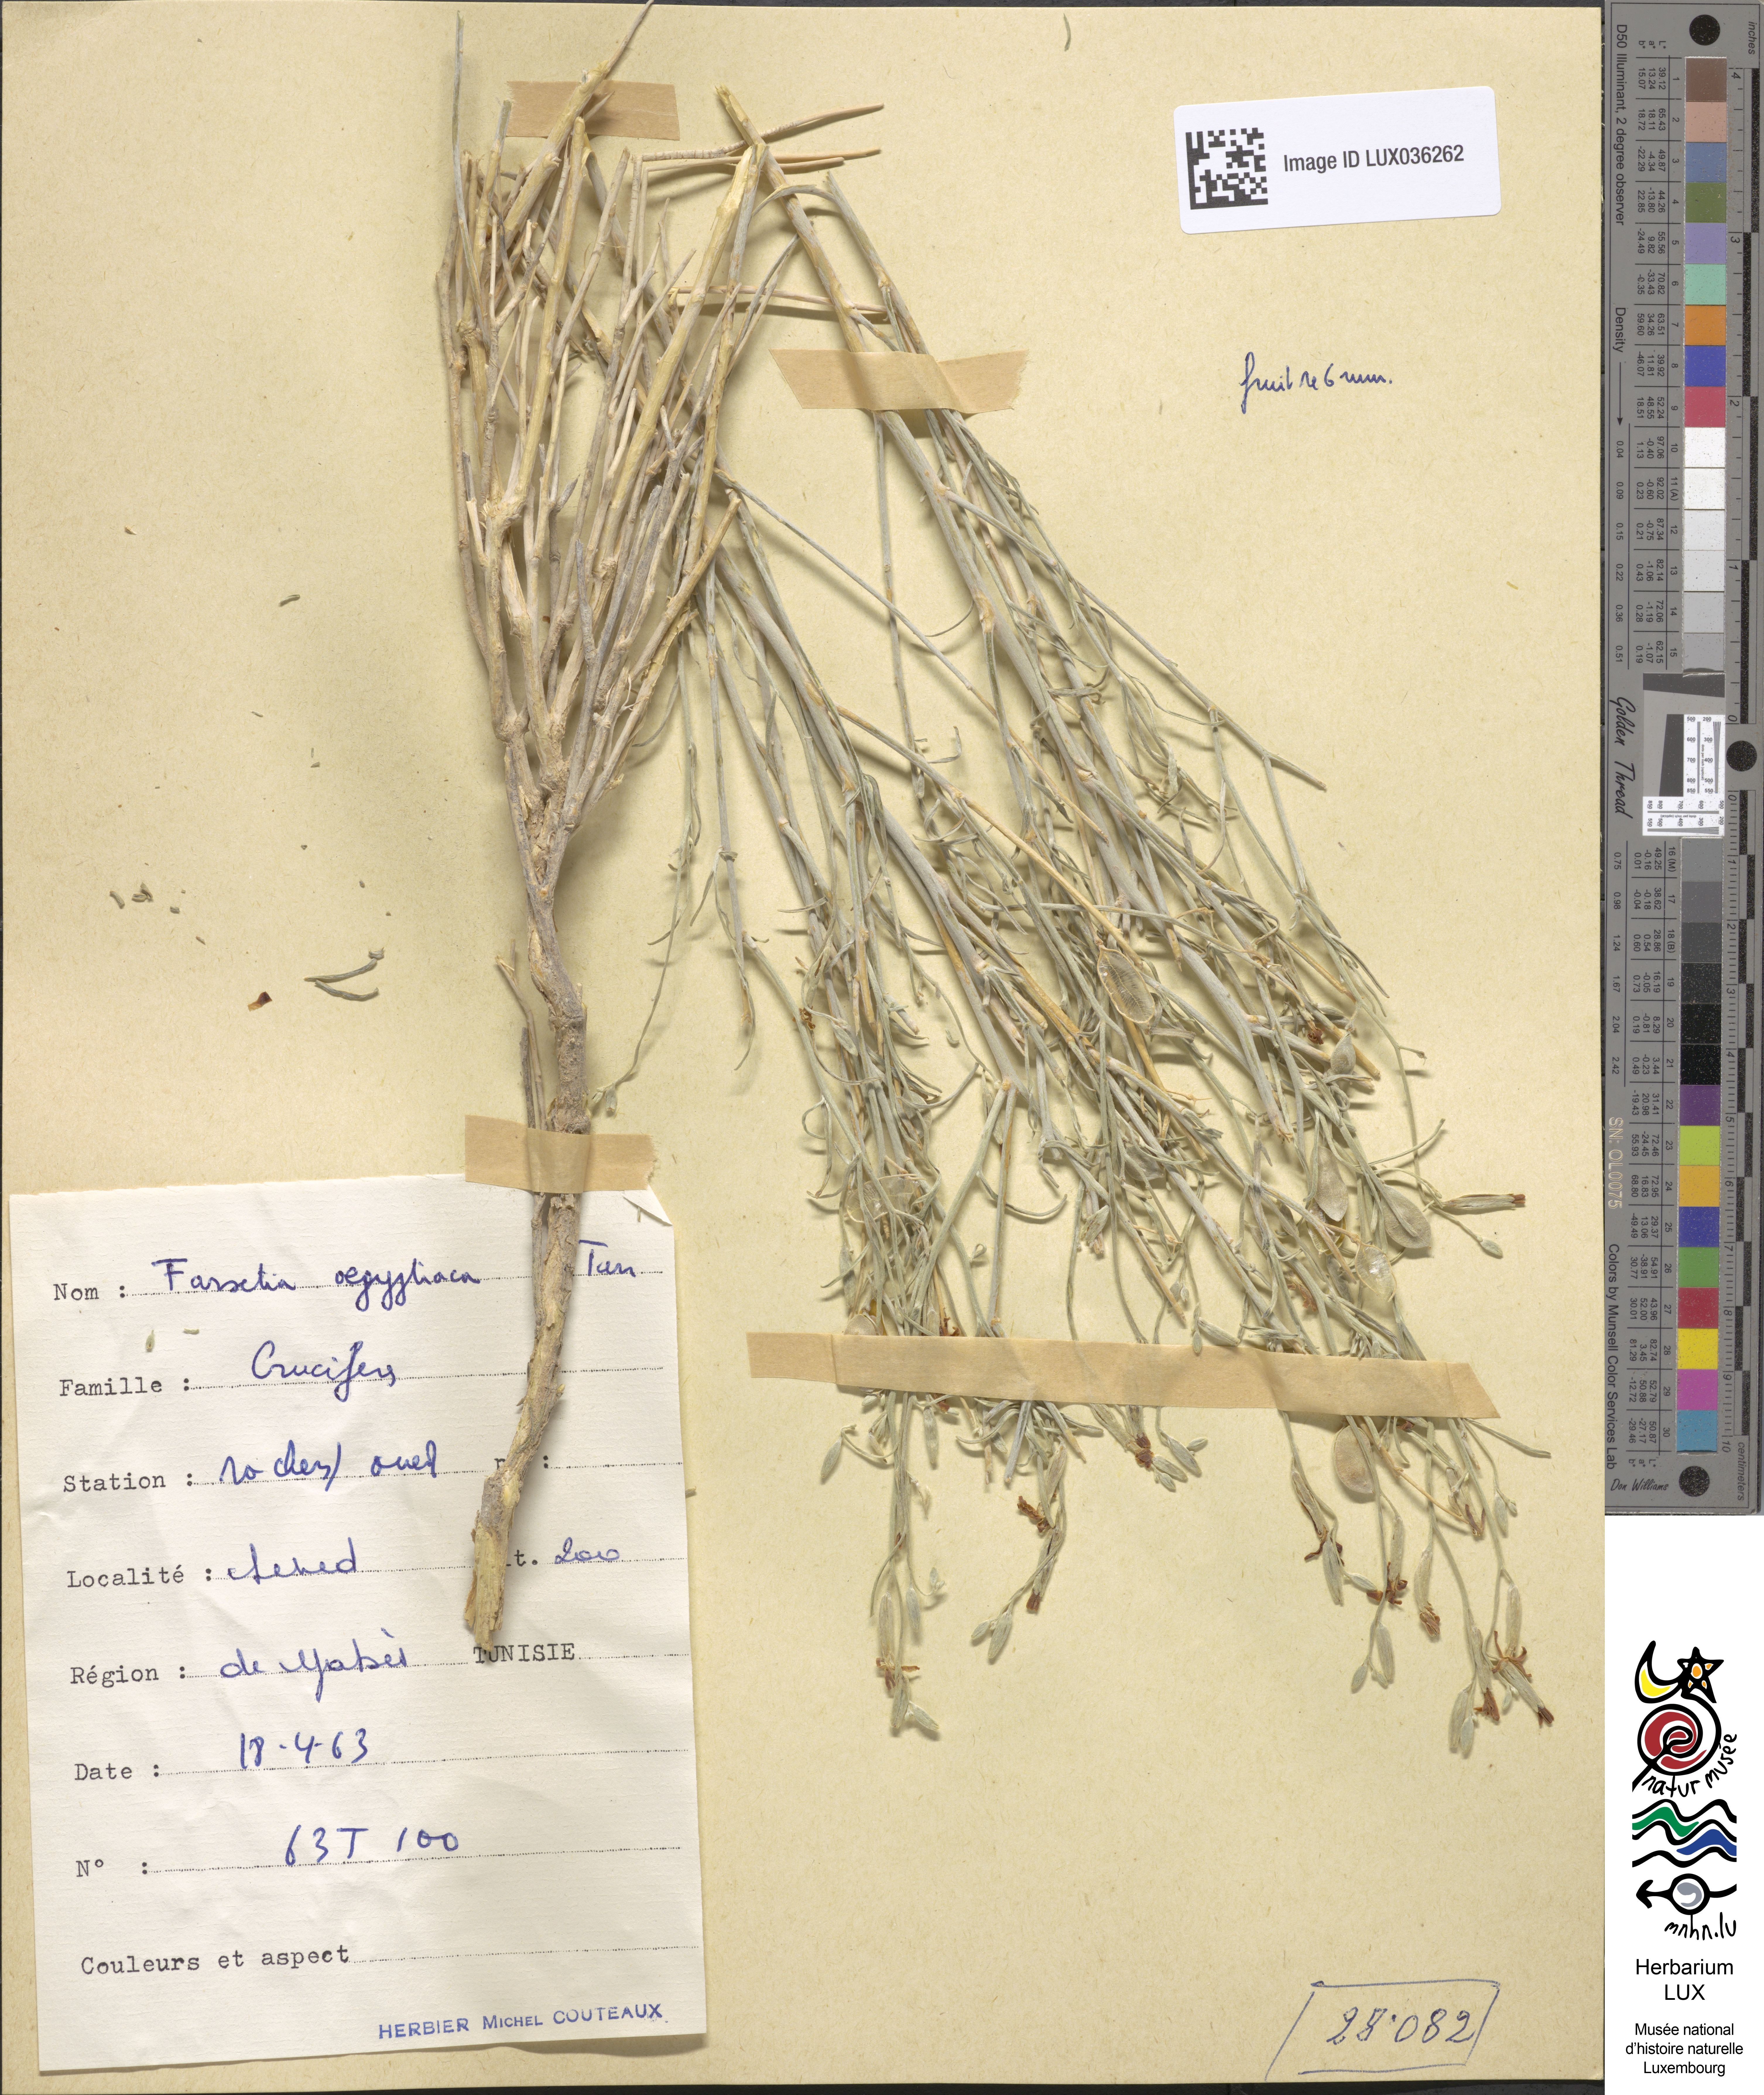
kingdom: Plantae
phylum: Tracheophyta
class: Magnoliopsida
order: Brassicales
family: Brassicaceae
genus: Farsetia
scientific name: Farsetia aegyptia
